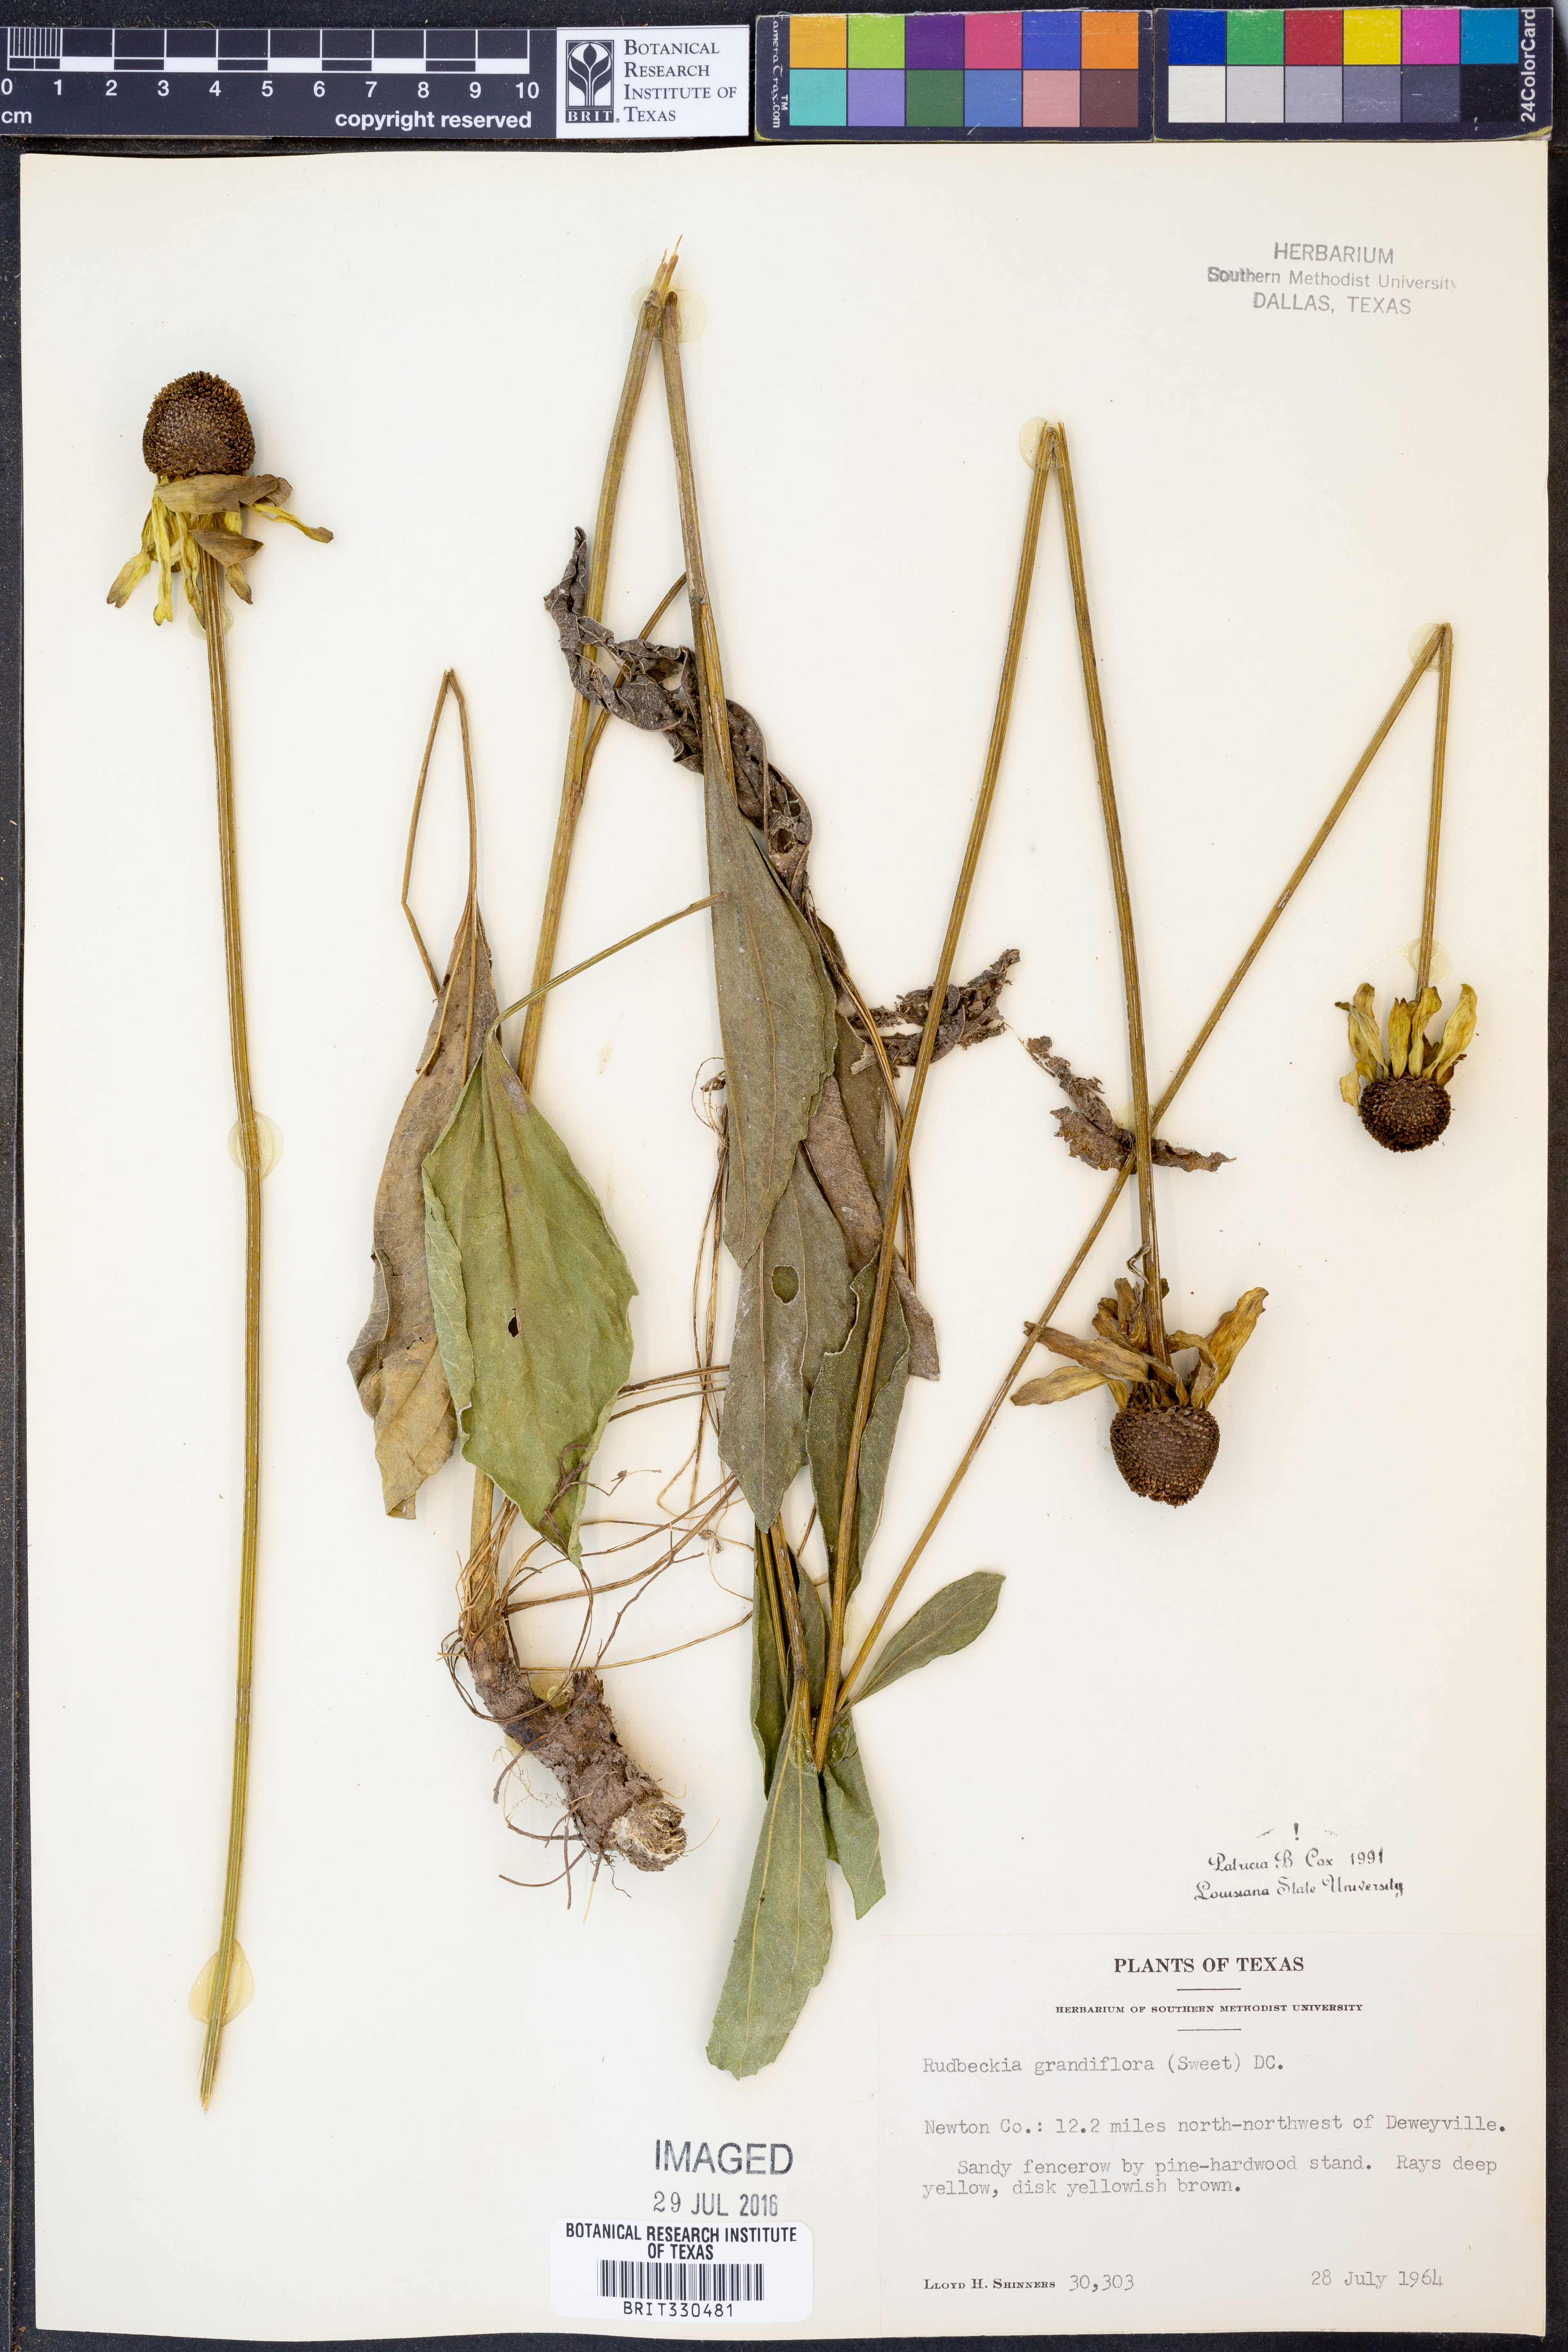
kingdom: Plantae
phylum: Tracheophyta
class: Magnoliopsida
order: Asterales
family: Asteraceae
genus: Rudbeckia
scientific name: Rudbeckia grandiflora
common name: Large-flowered coneflower
